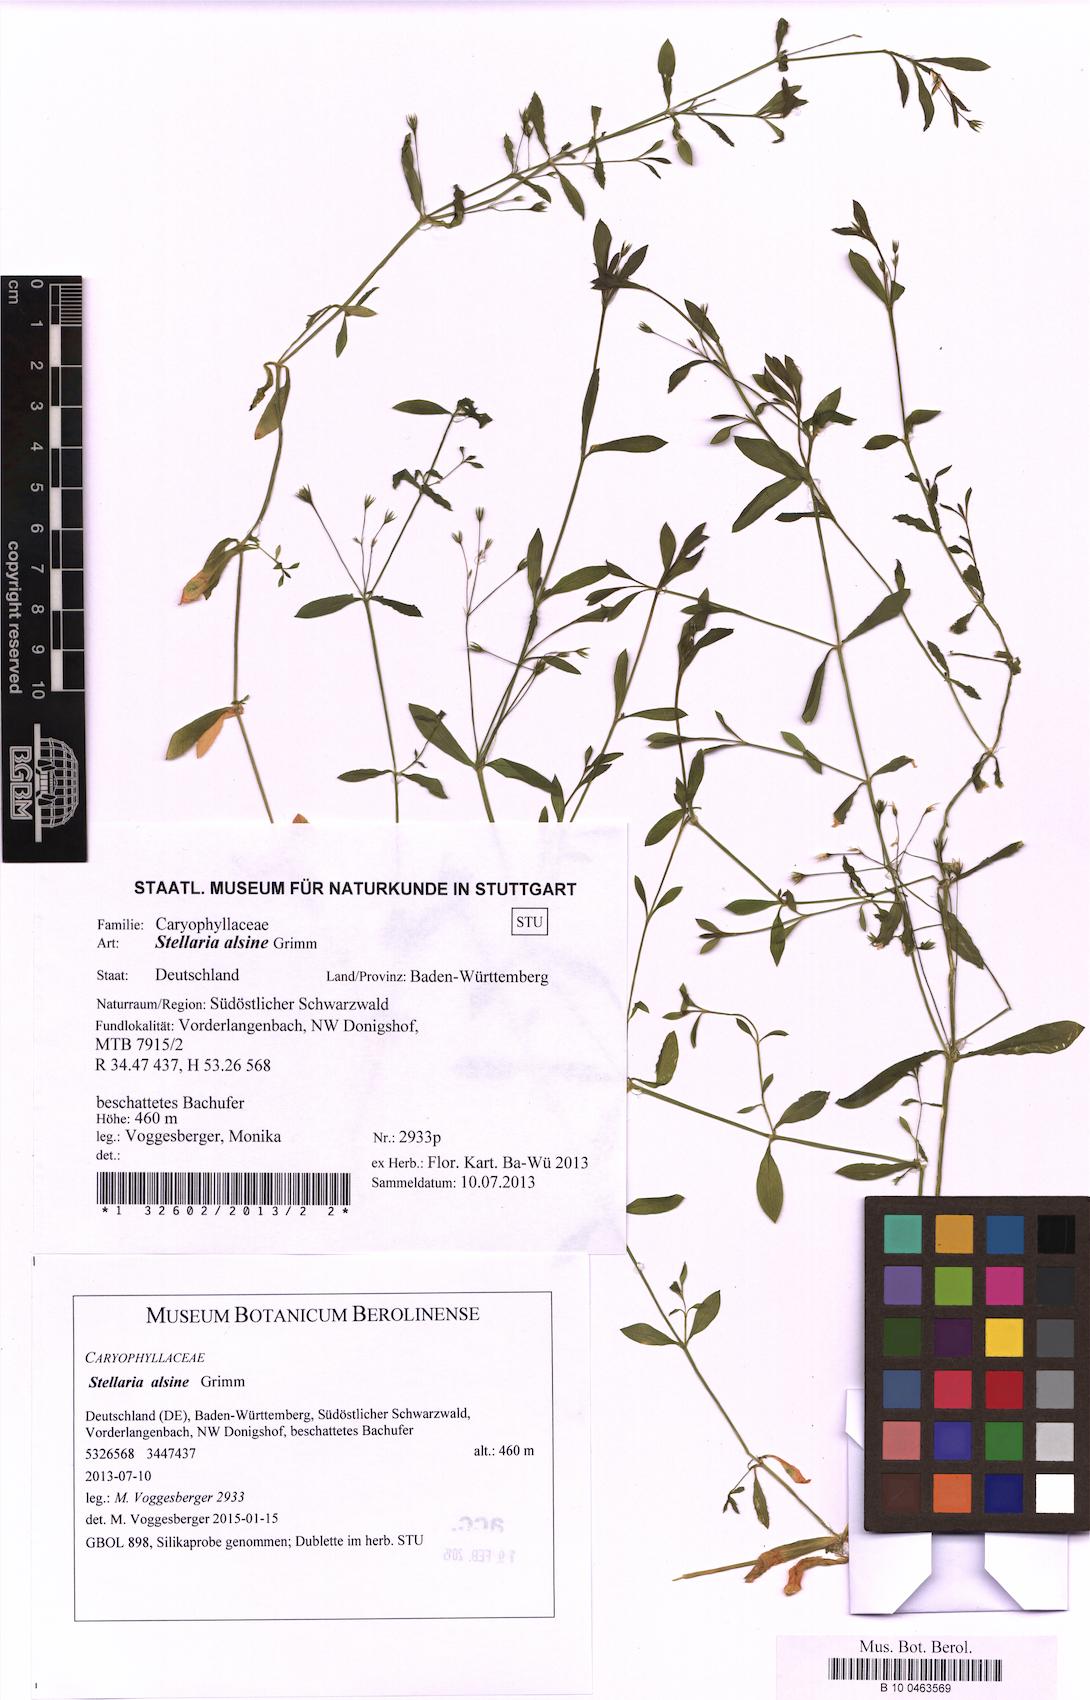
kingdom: Plantae
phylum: Tracheophyta
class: Magnoliopsida
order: Caryophyllales
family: Caryophyllaceae
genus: Stellaria
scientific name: Stellaria alsine
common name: Bog stitchwort
